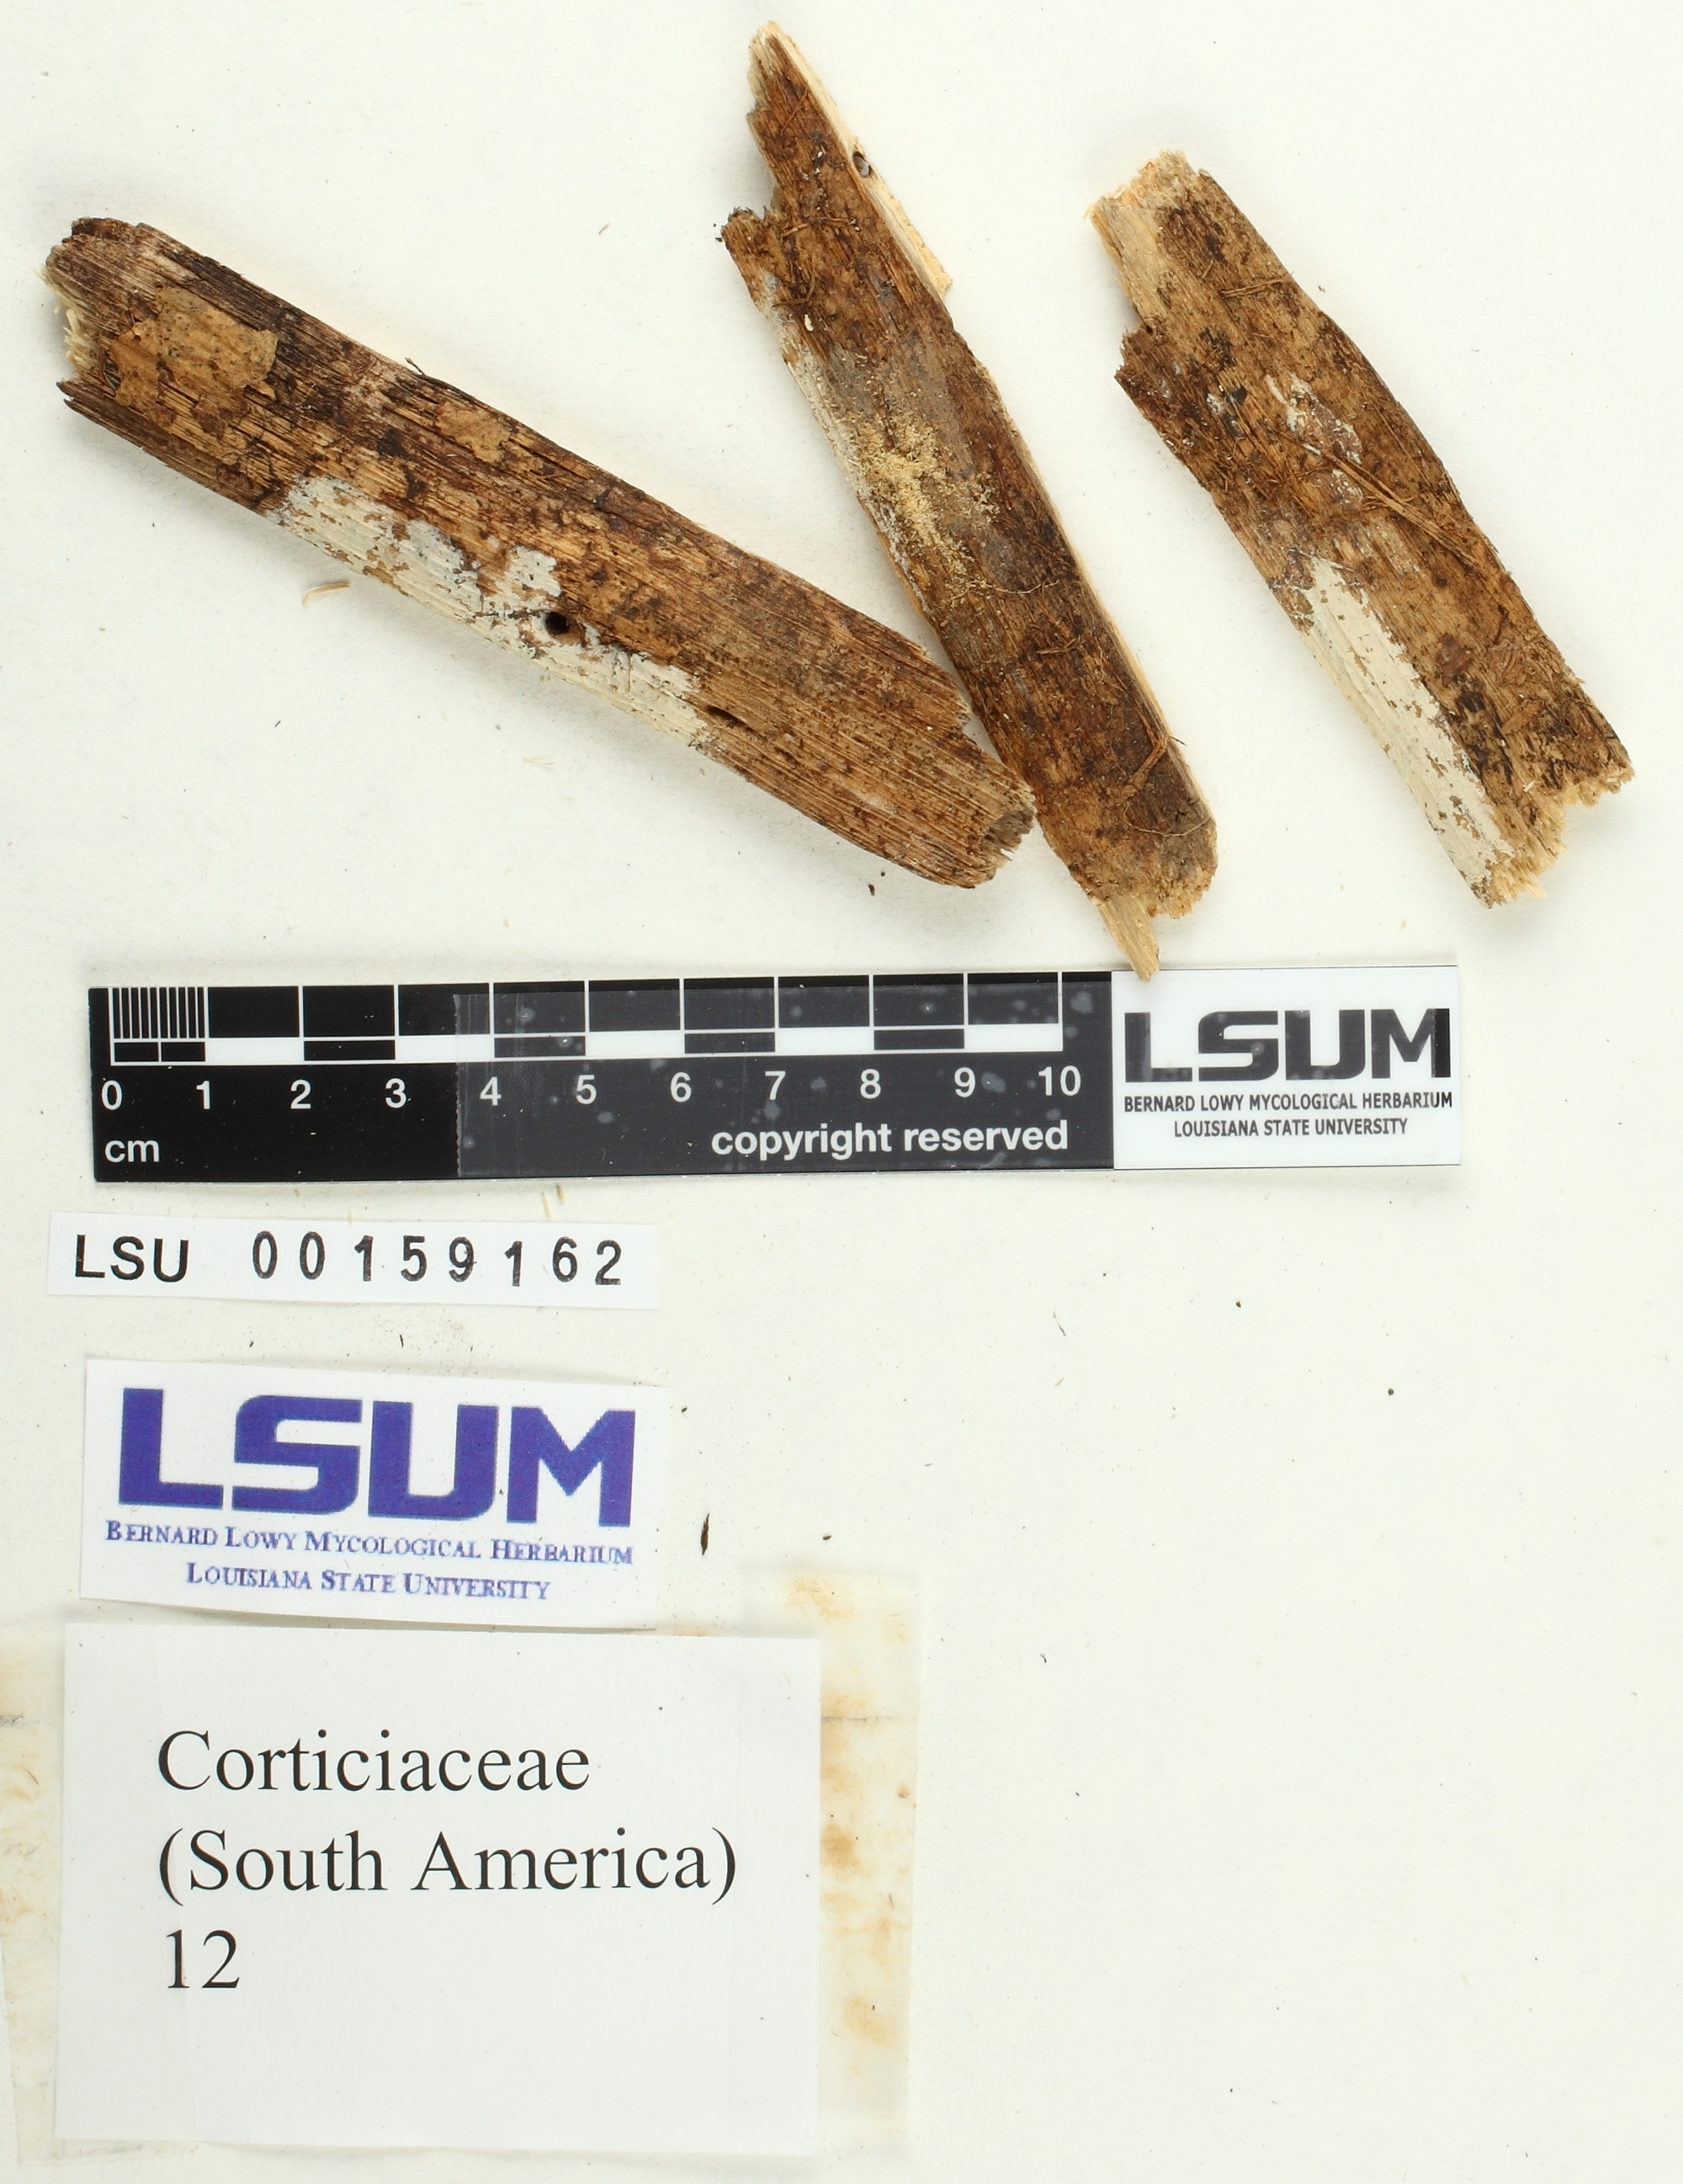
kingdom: Fungi
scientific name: Fungi
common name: Fungi
